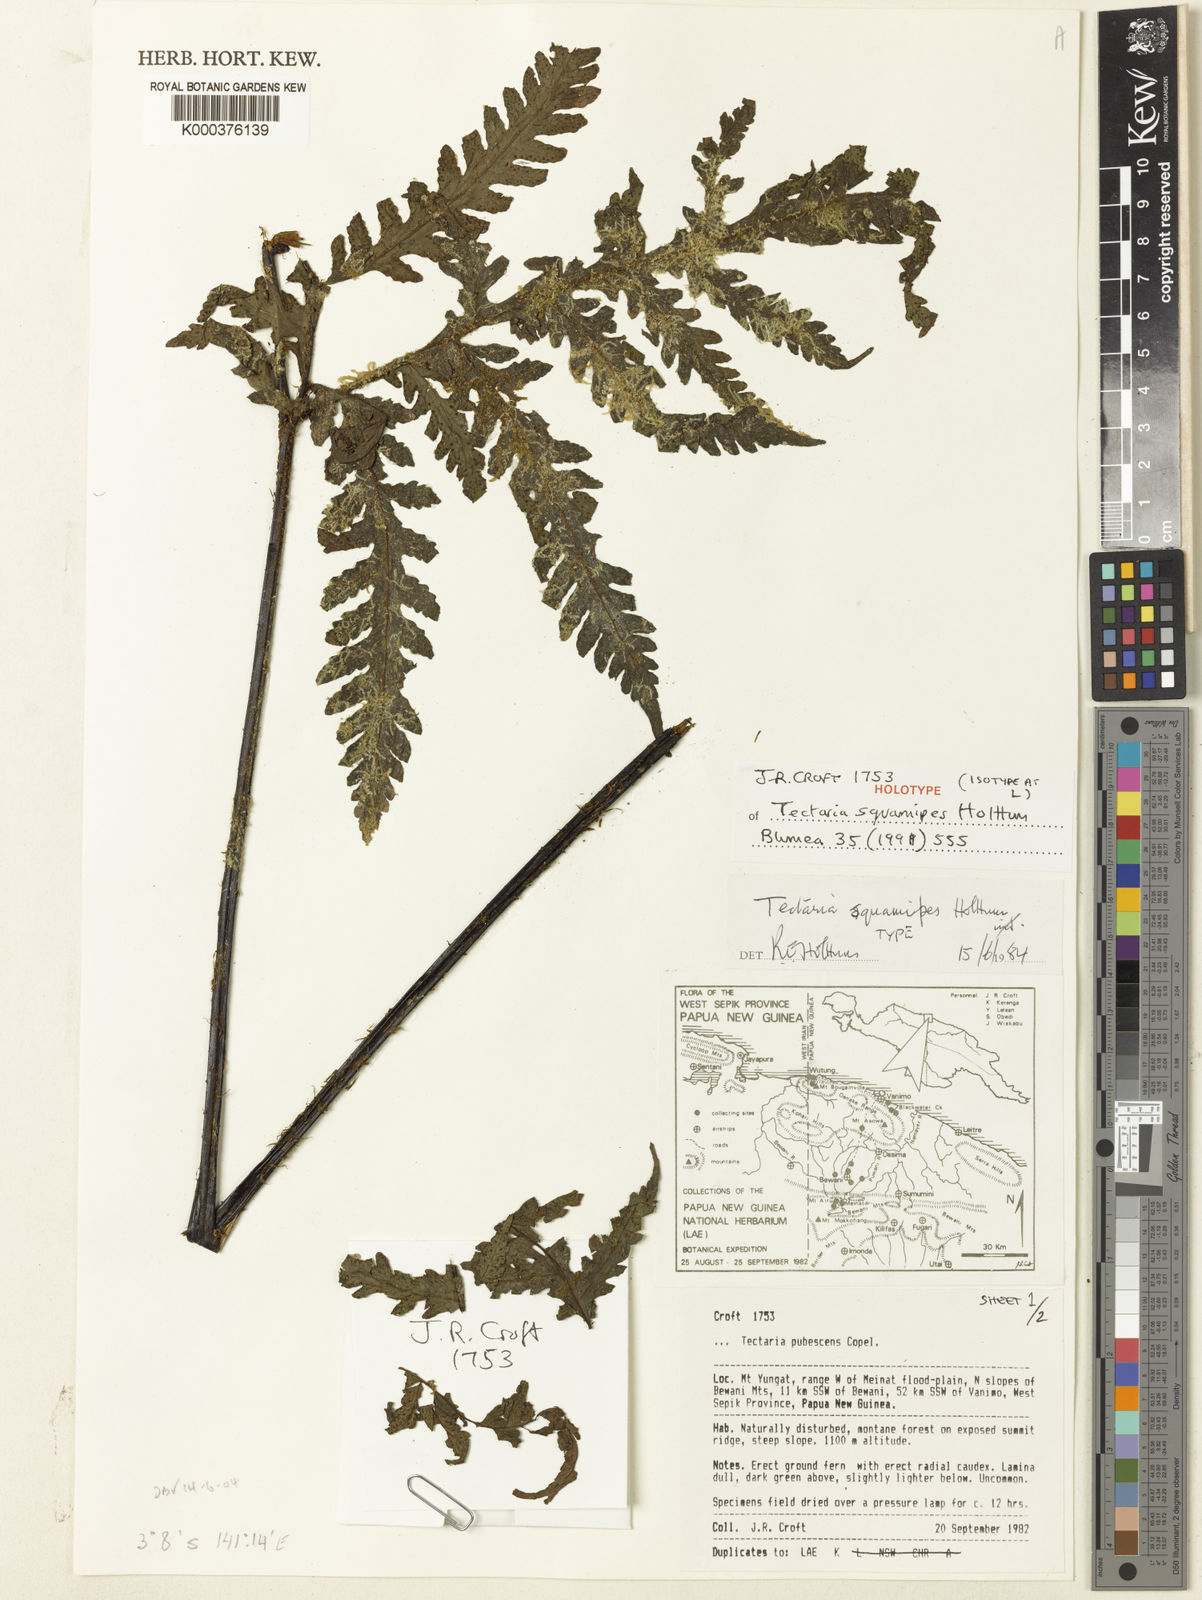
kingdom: Plantae
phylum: Tracheophyta
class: Polypodiopsida
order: Polypodiales
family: Tectariaceae
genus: Tectaria
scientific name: Tectaria squamipes
